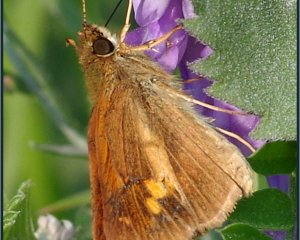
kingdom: Animalia
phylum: Arthropoda
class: Insecta
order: Lepidoptera
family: Hesperiidae
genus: Poanes
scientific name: Poanes viator
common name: Broad-winged Skipper
